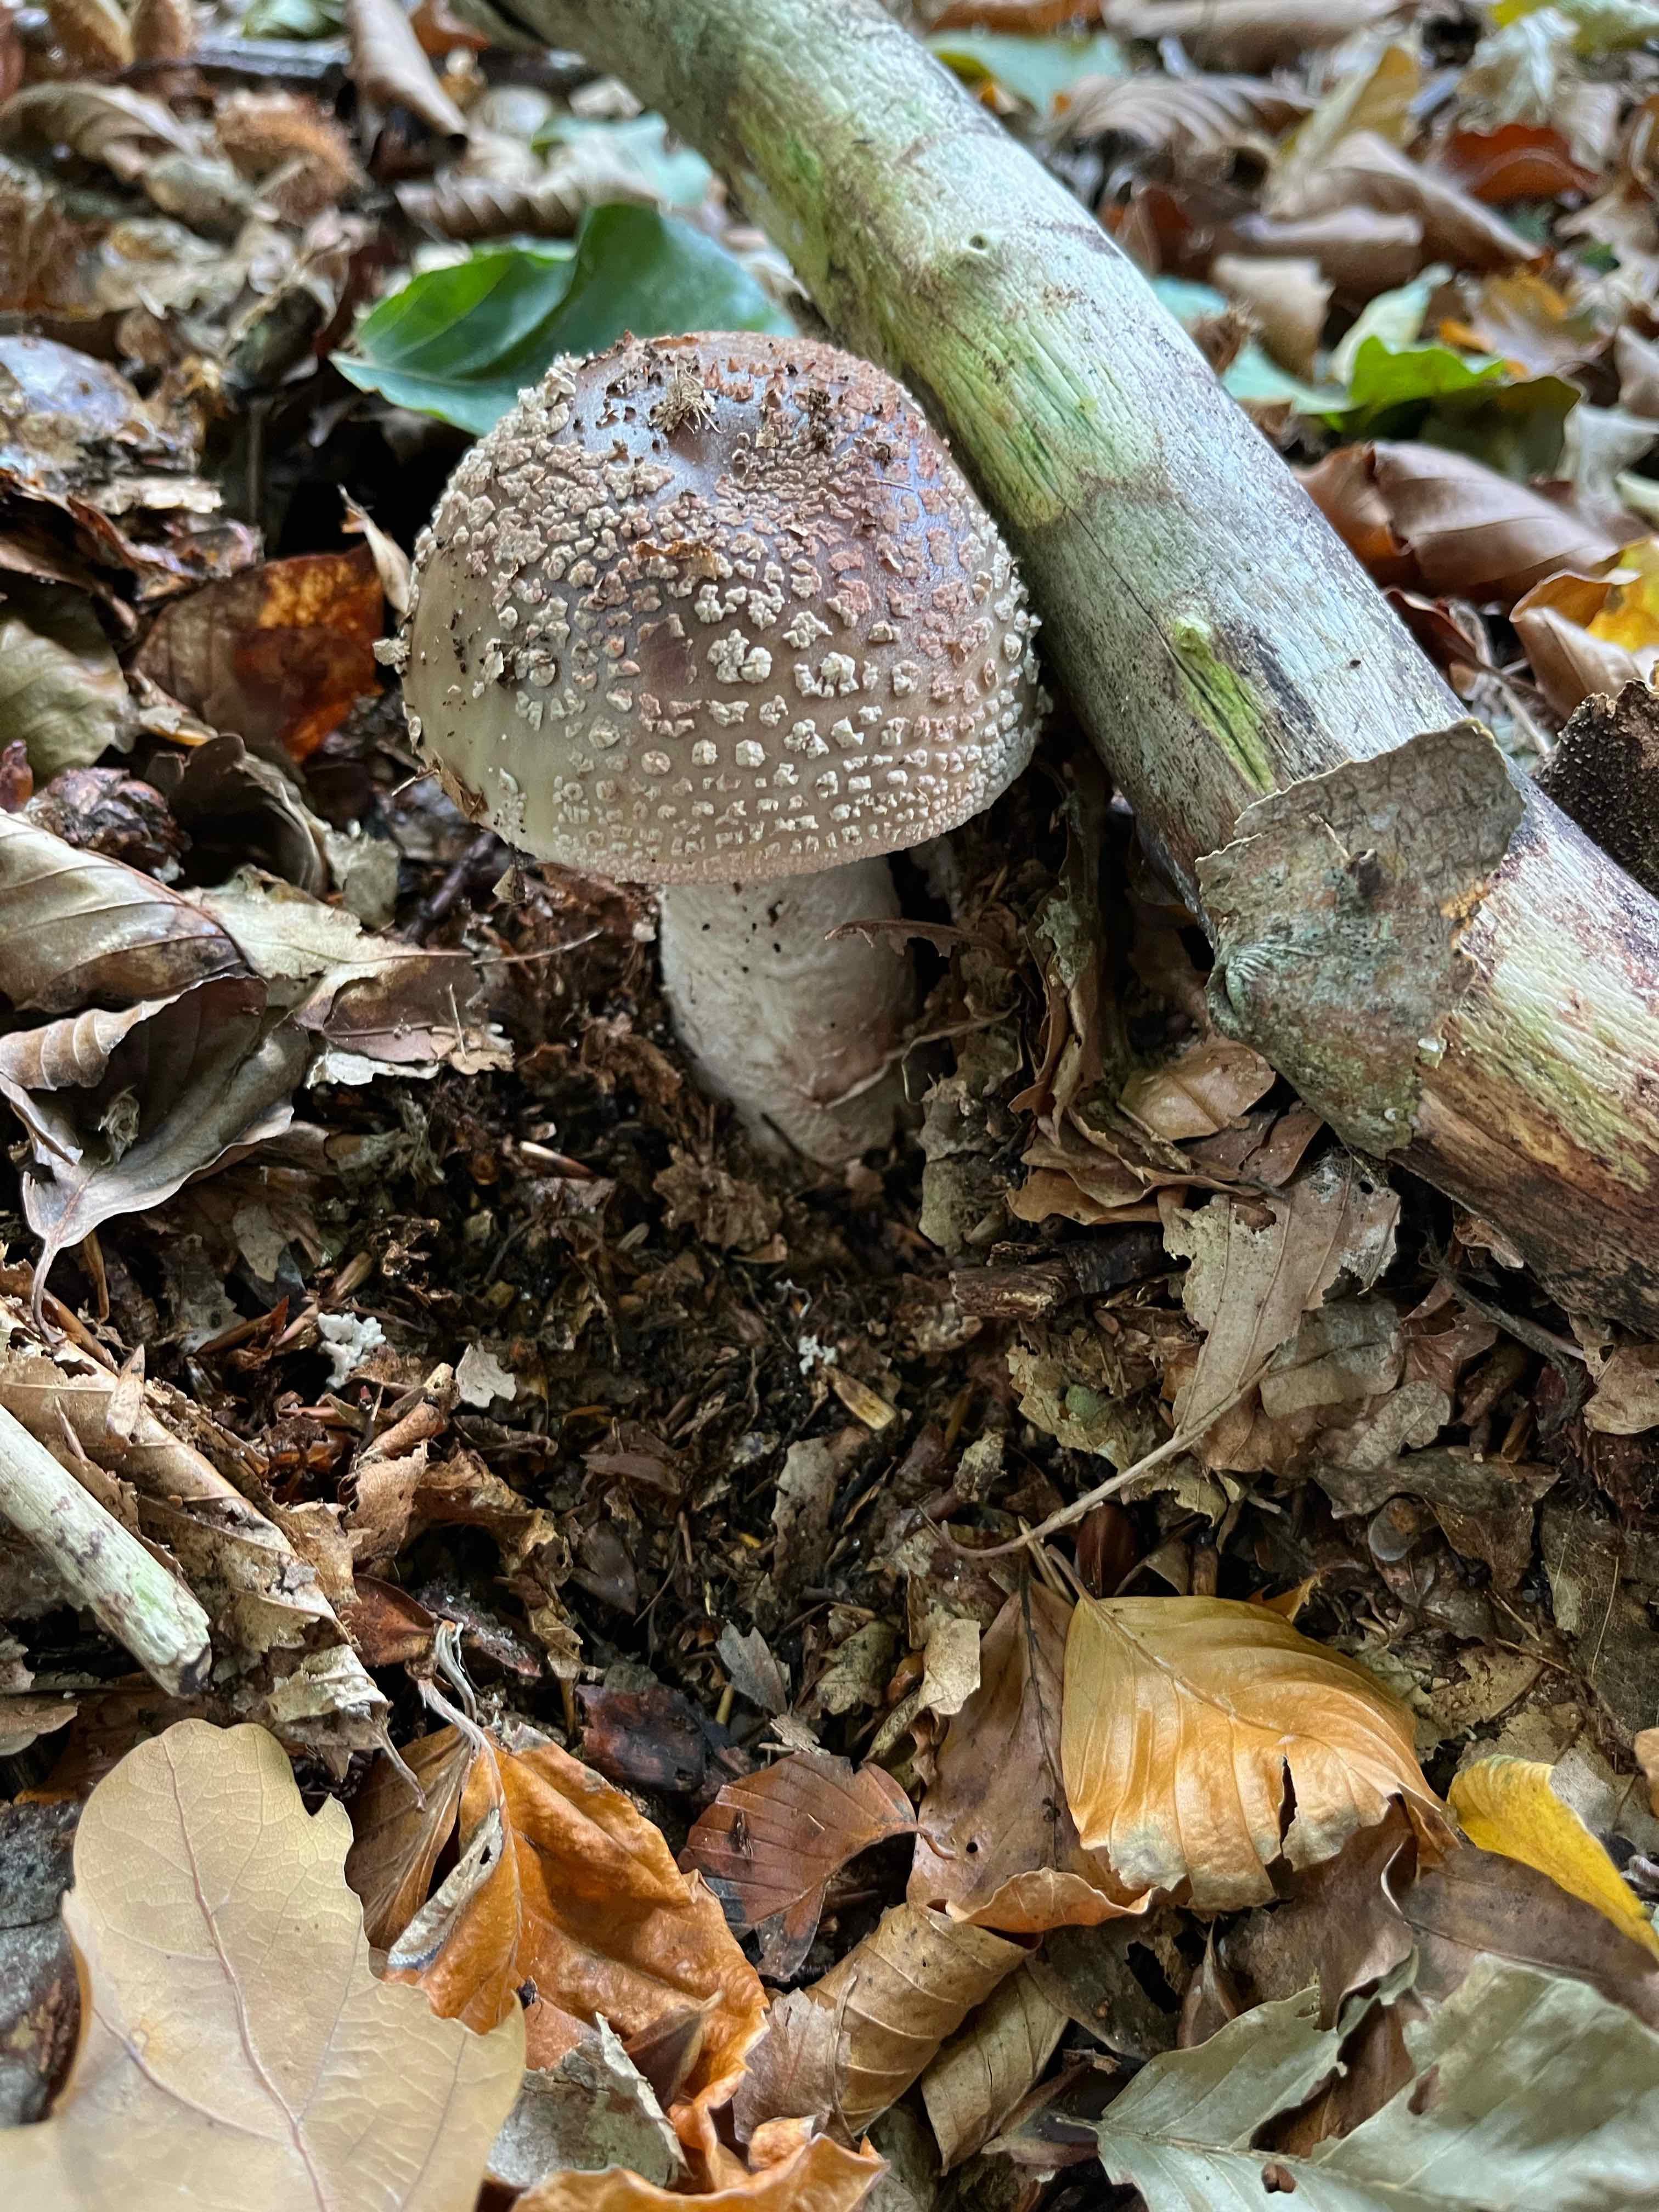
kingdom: Fungi
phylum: Basidiomycota
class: Agaricomycetes
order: Agaricales
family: Amanitaceae
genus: Amanita
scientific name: Amanita rubescens
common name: rødmende fluesvamp
